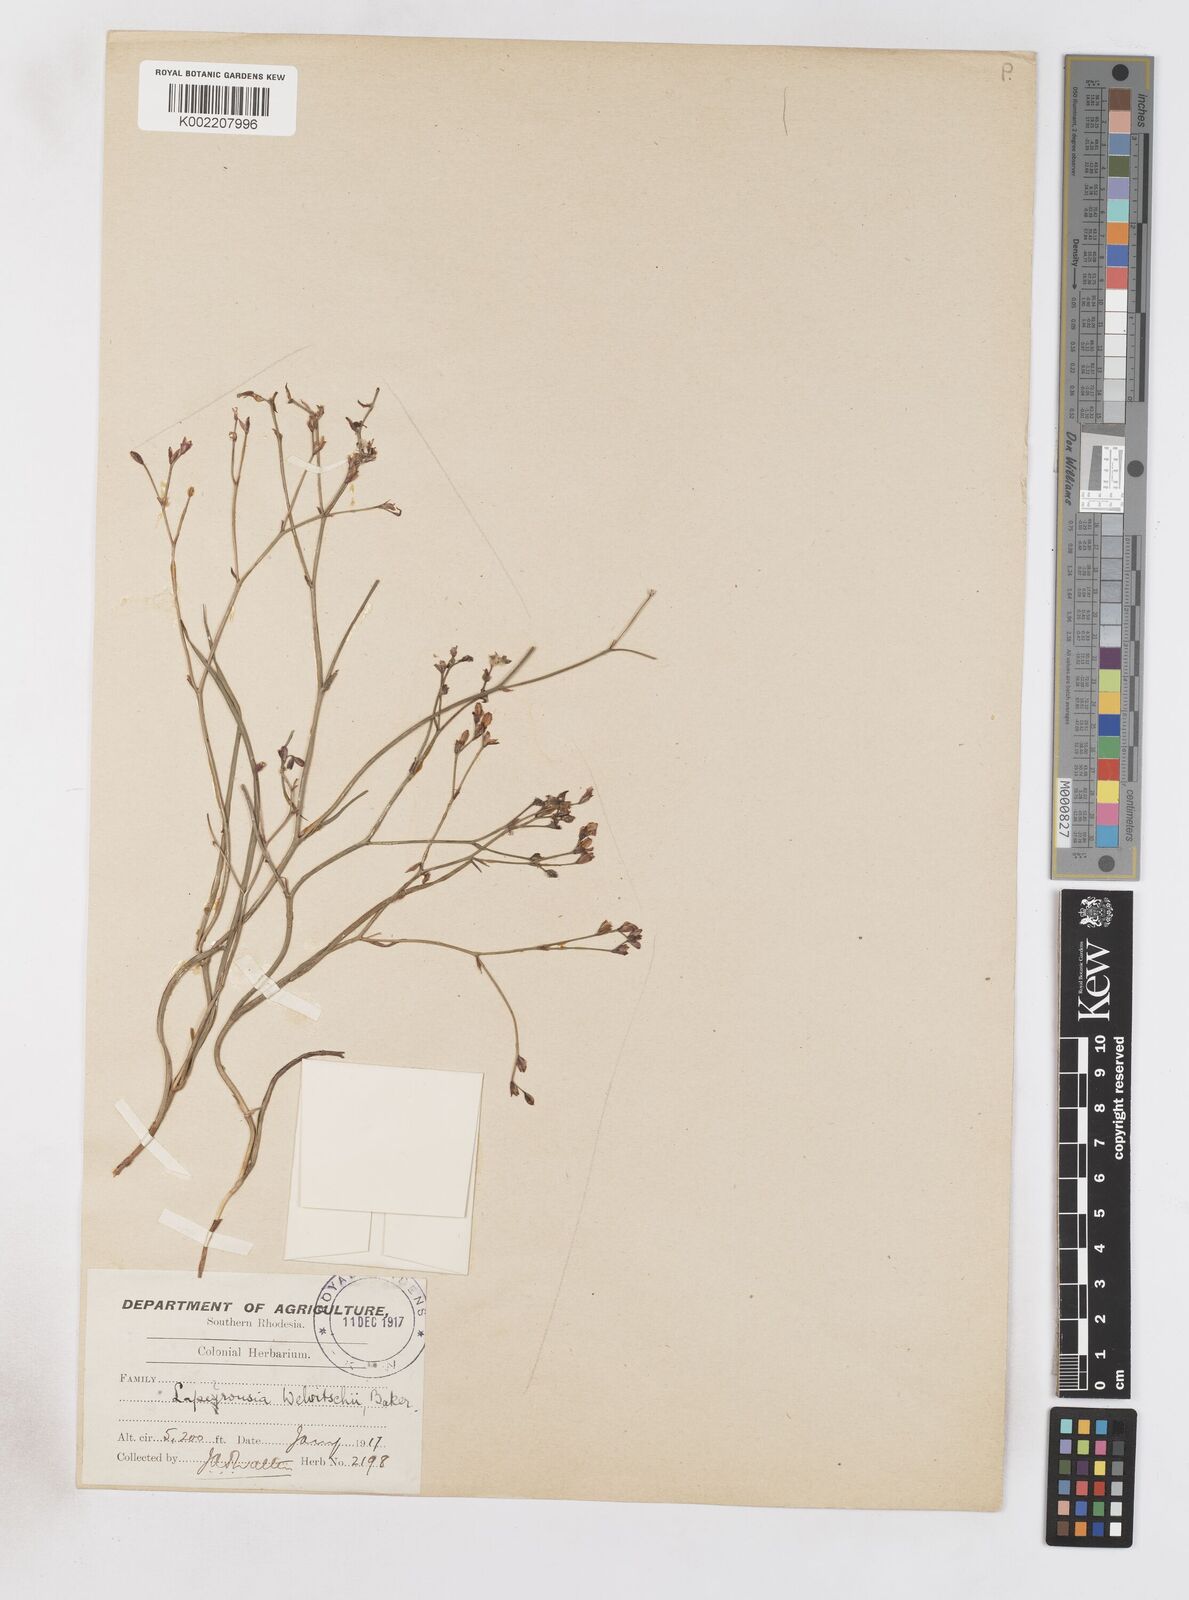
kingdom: Plantae
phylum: Tracheophyta
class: Liliopsida
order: Asparagales
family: Iridaceae
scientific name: Iridaceae
